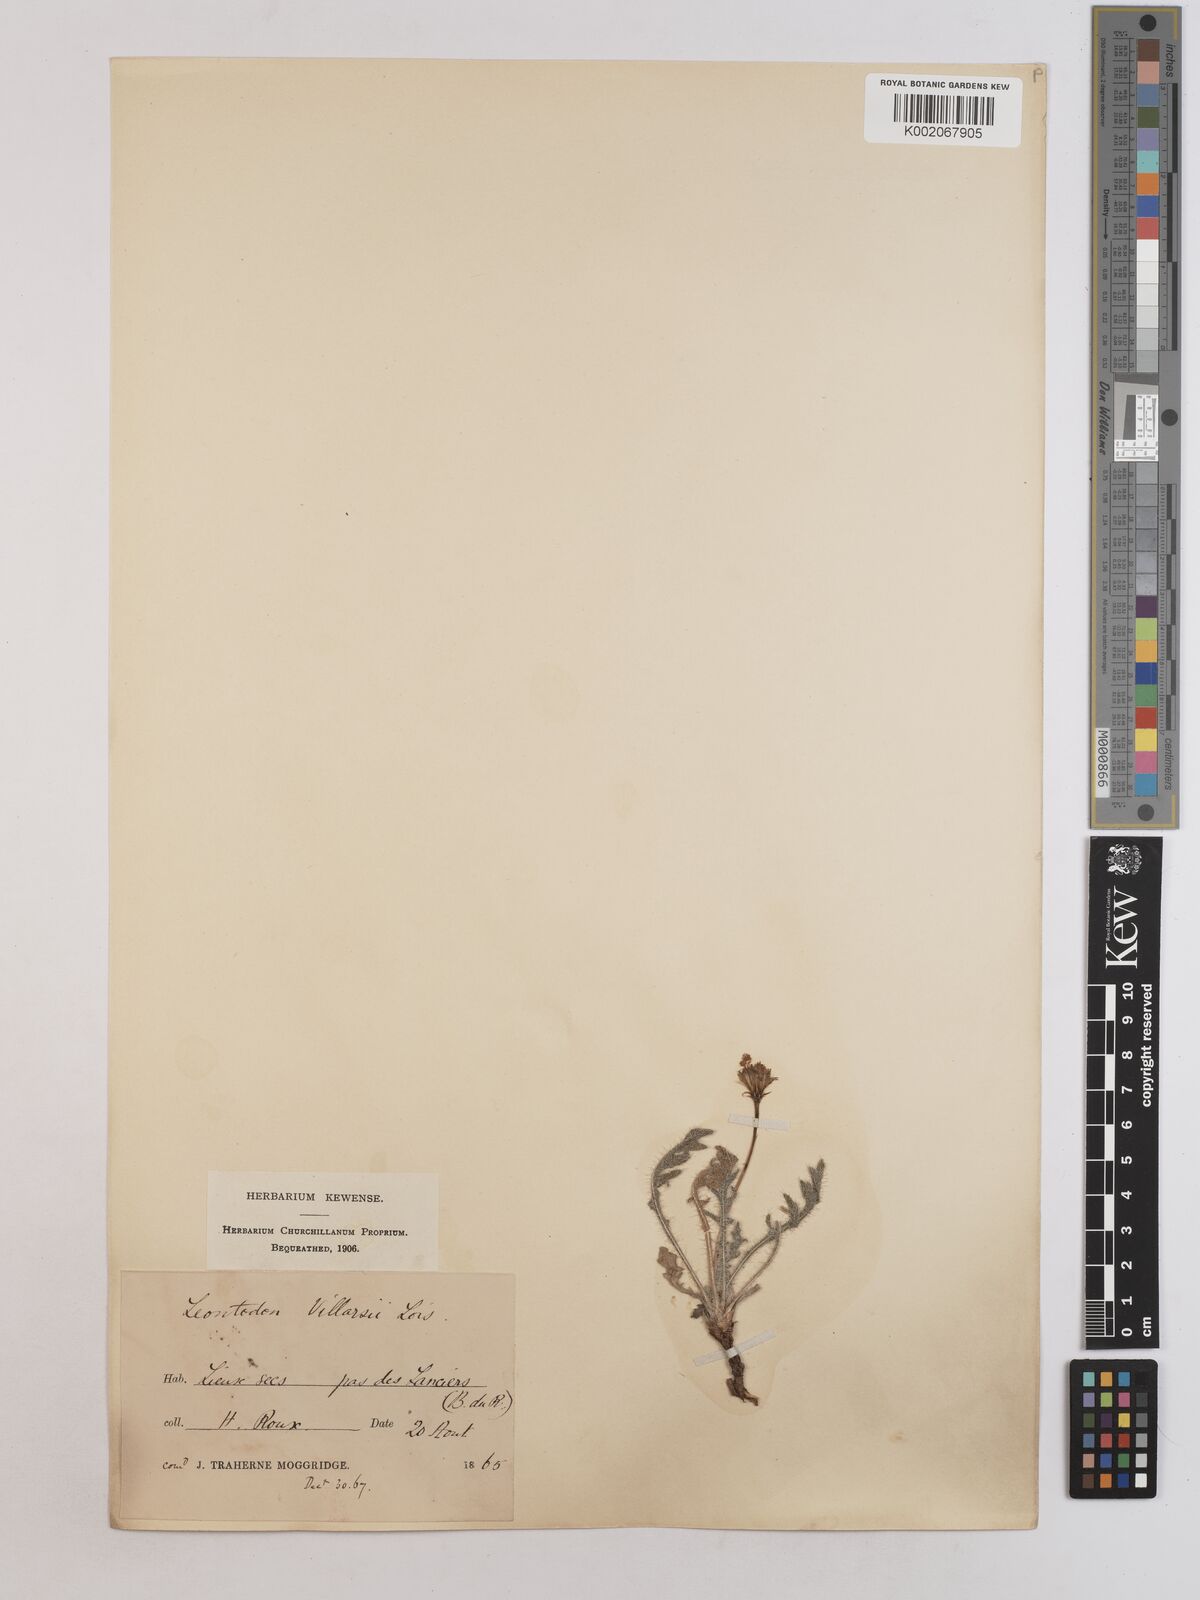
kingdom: Plantae
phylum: Tracheophyta
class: Magnoliopsida
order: Asterales
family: Asteraceae
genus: Leontodon
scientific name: Leontodon hirtus
